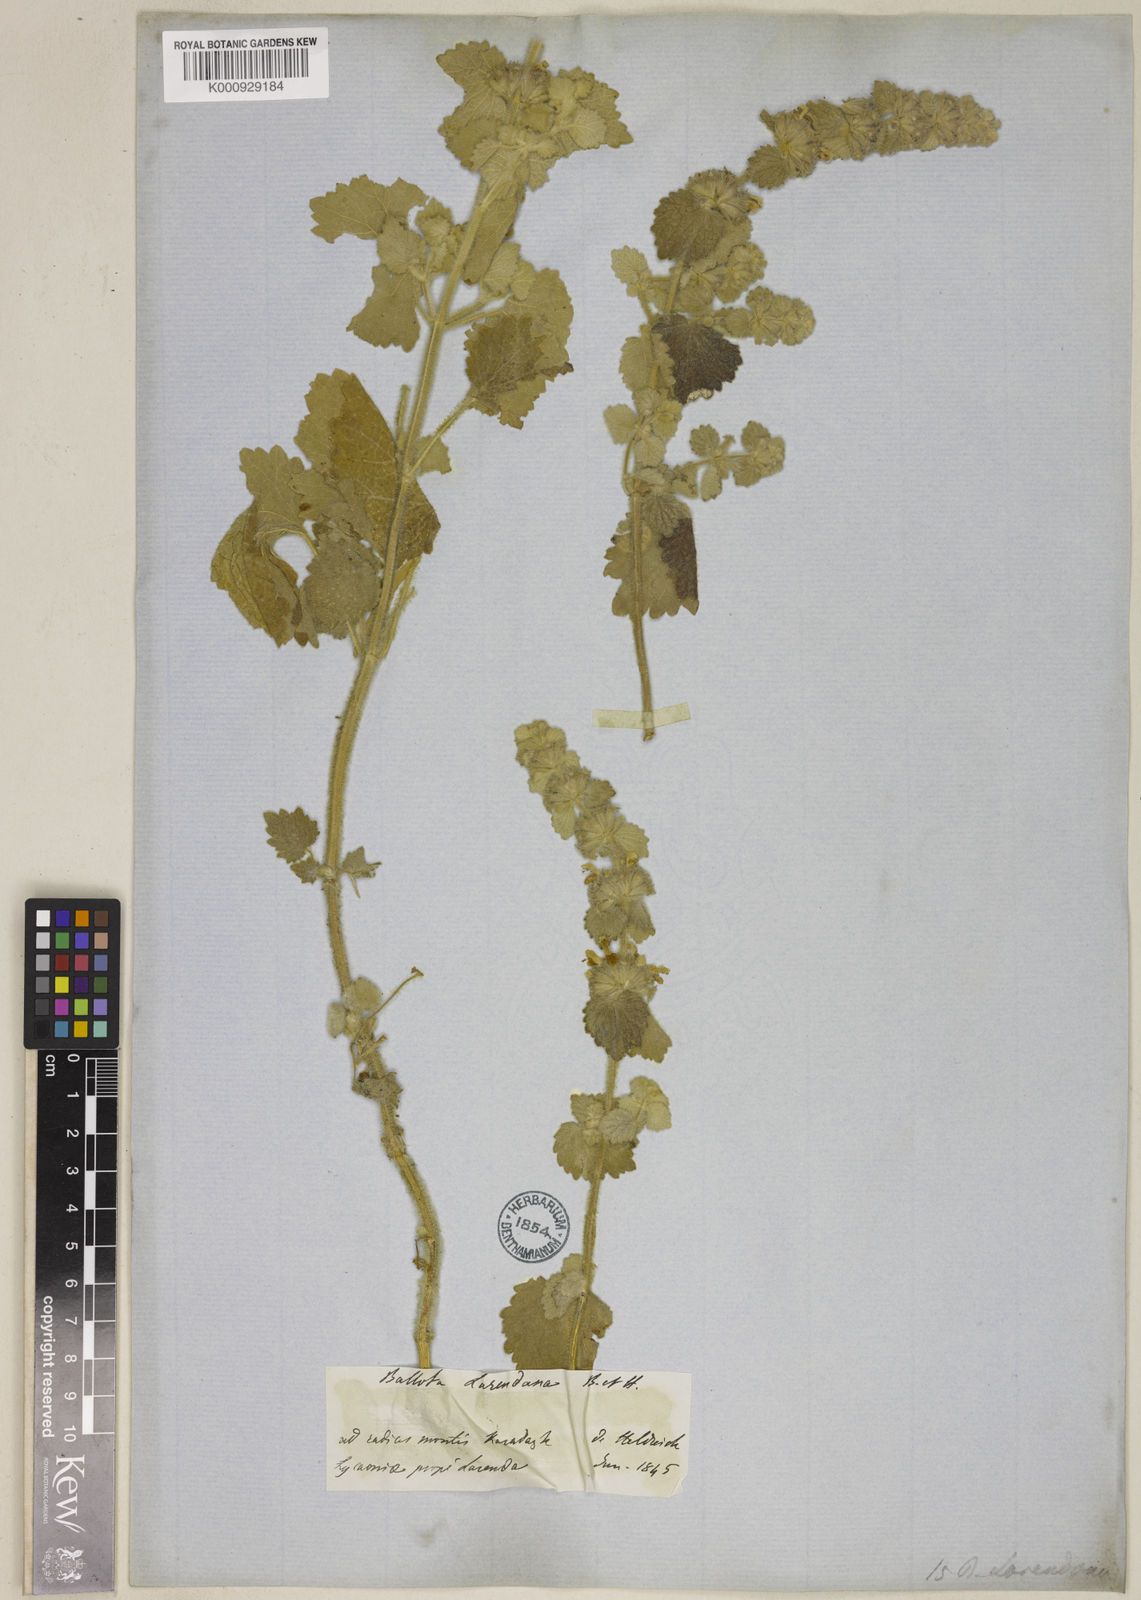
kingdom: Plantae
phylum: Tracheophyta
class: Magnoliopsida
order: Lamiales
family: Lamiaceae
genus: Ballota
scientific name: Ballota larendana
